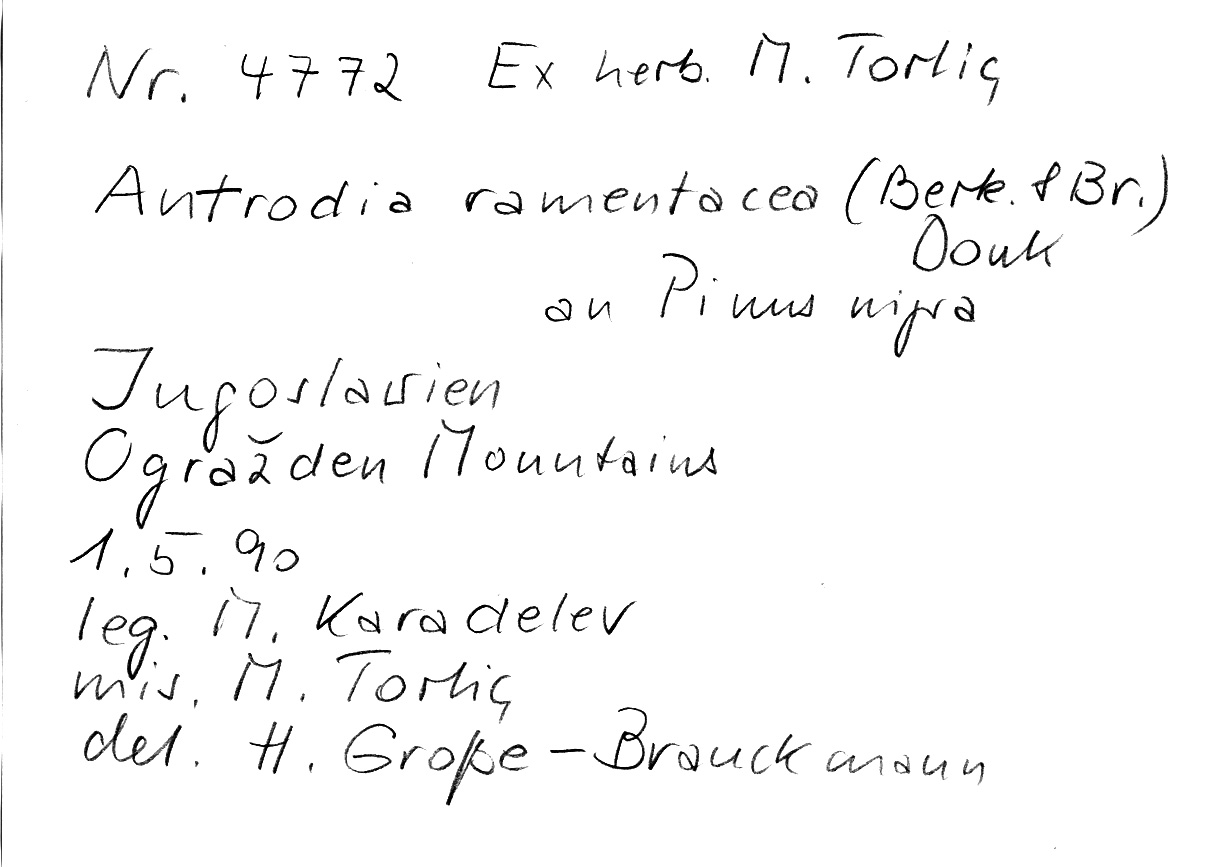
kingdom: Fungi
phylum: Basidiomycota
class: Agaricomycetes
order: Polyporales
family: Fomitopsidaceae
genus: Antrodia
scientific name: Antrodia ramentacea
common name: Honeycomb crust
